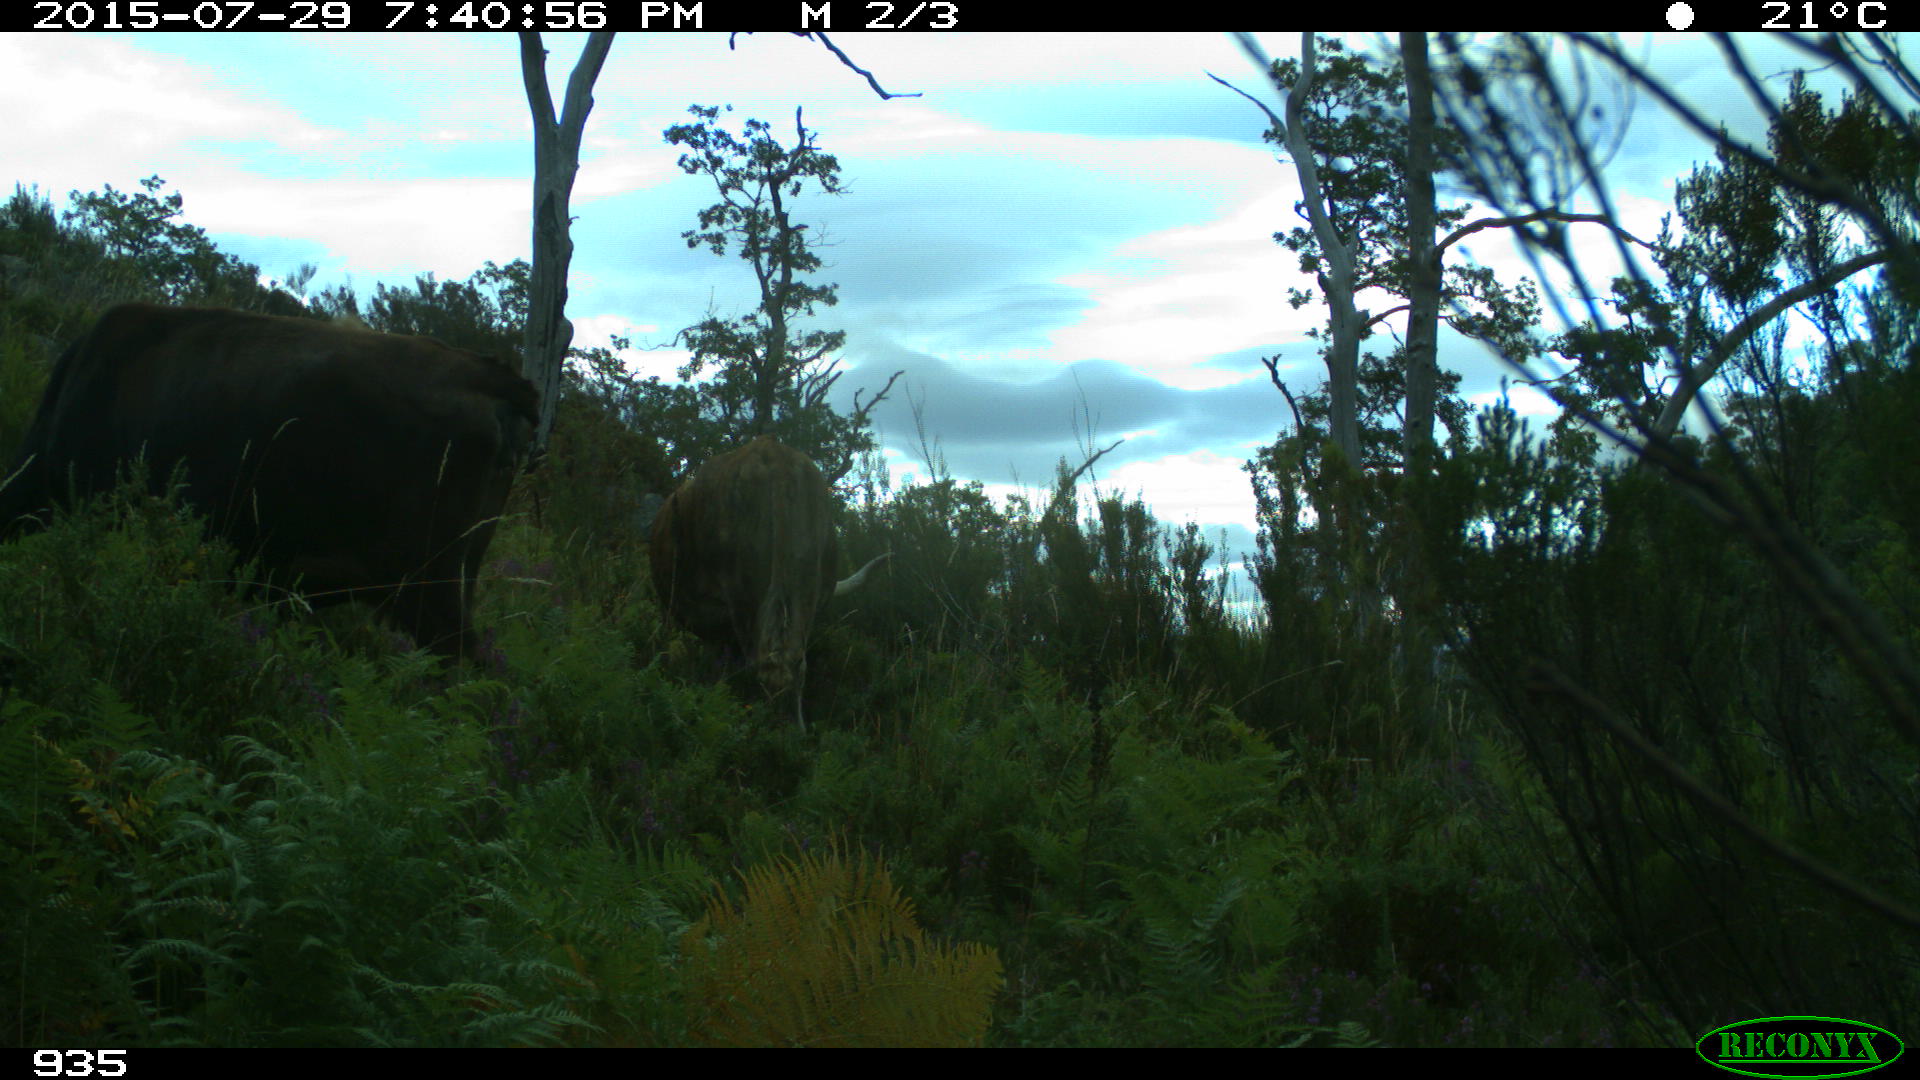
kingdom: Animalia
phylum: Chordata
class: Mammalia
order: Artiodactyla
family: Bovidae
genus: Bos
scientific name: Bos taurus
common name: Domesticated cattle
